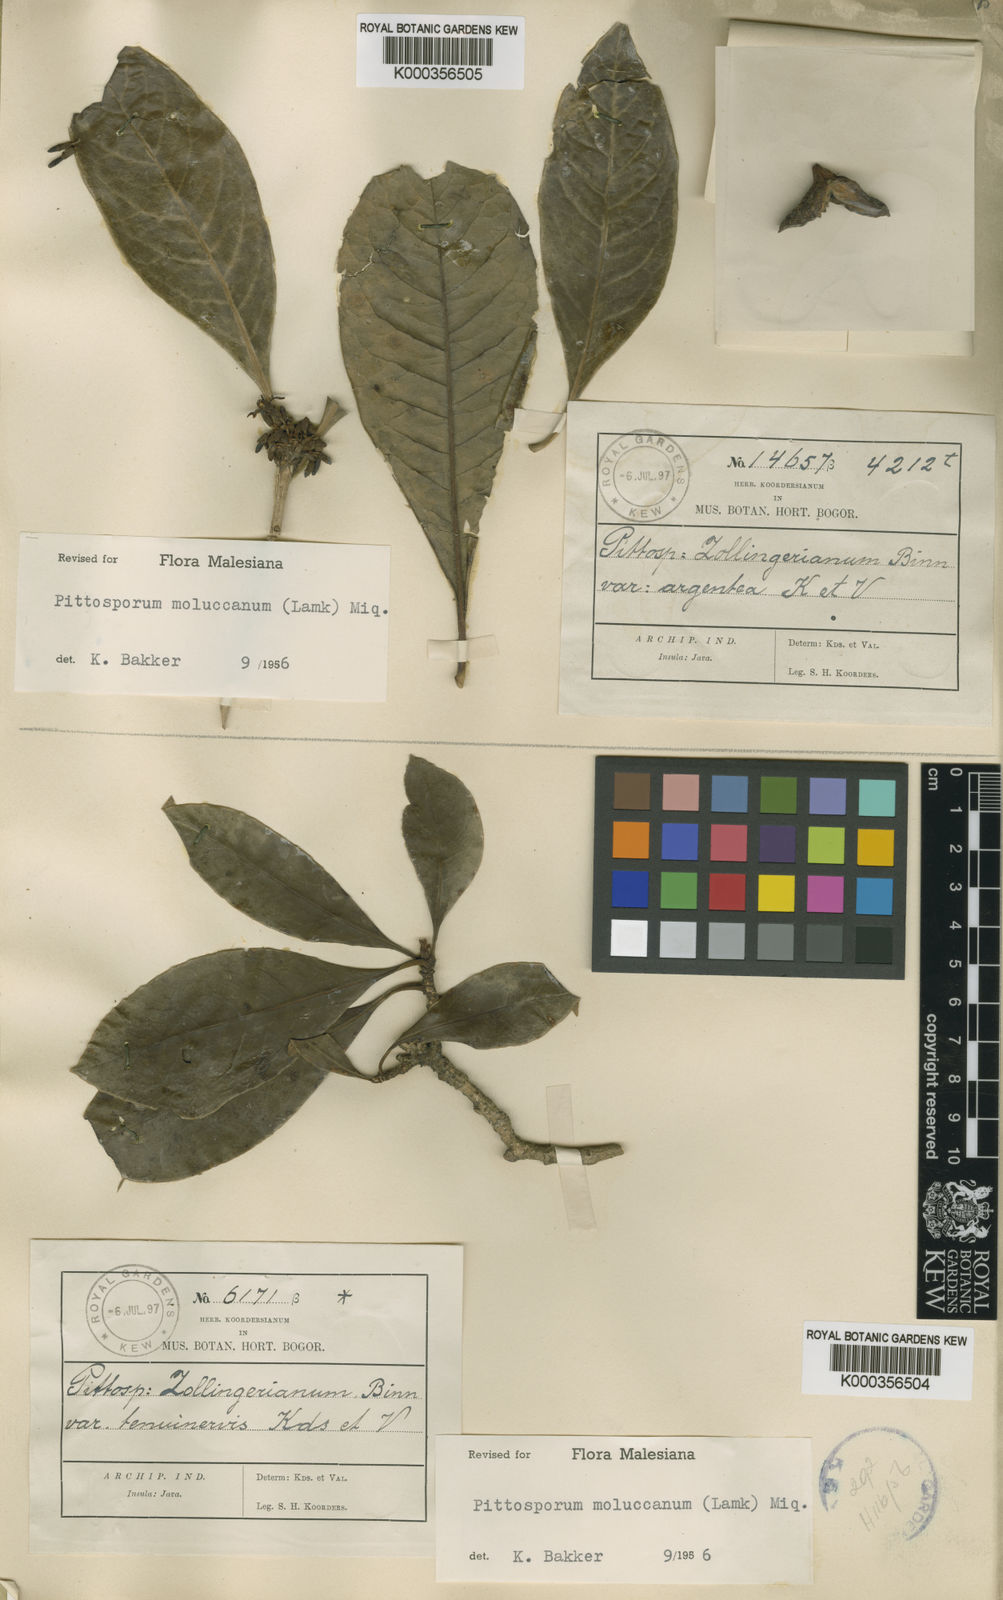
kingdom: Plantae
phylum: Tracheophyta
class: Magnoliopsida
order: Apiales
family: Pittosporaceae
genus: Pittosporum
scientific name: Pittosporum moluccanum
